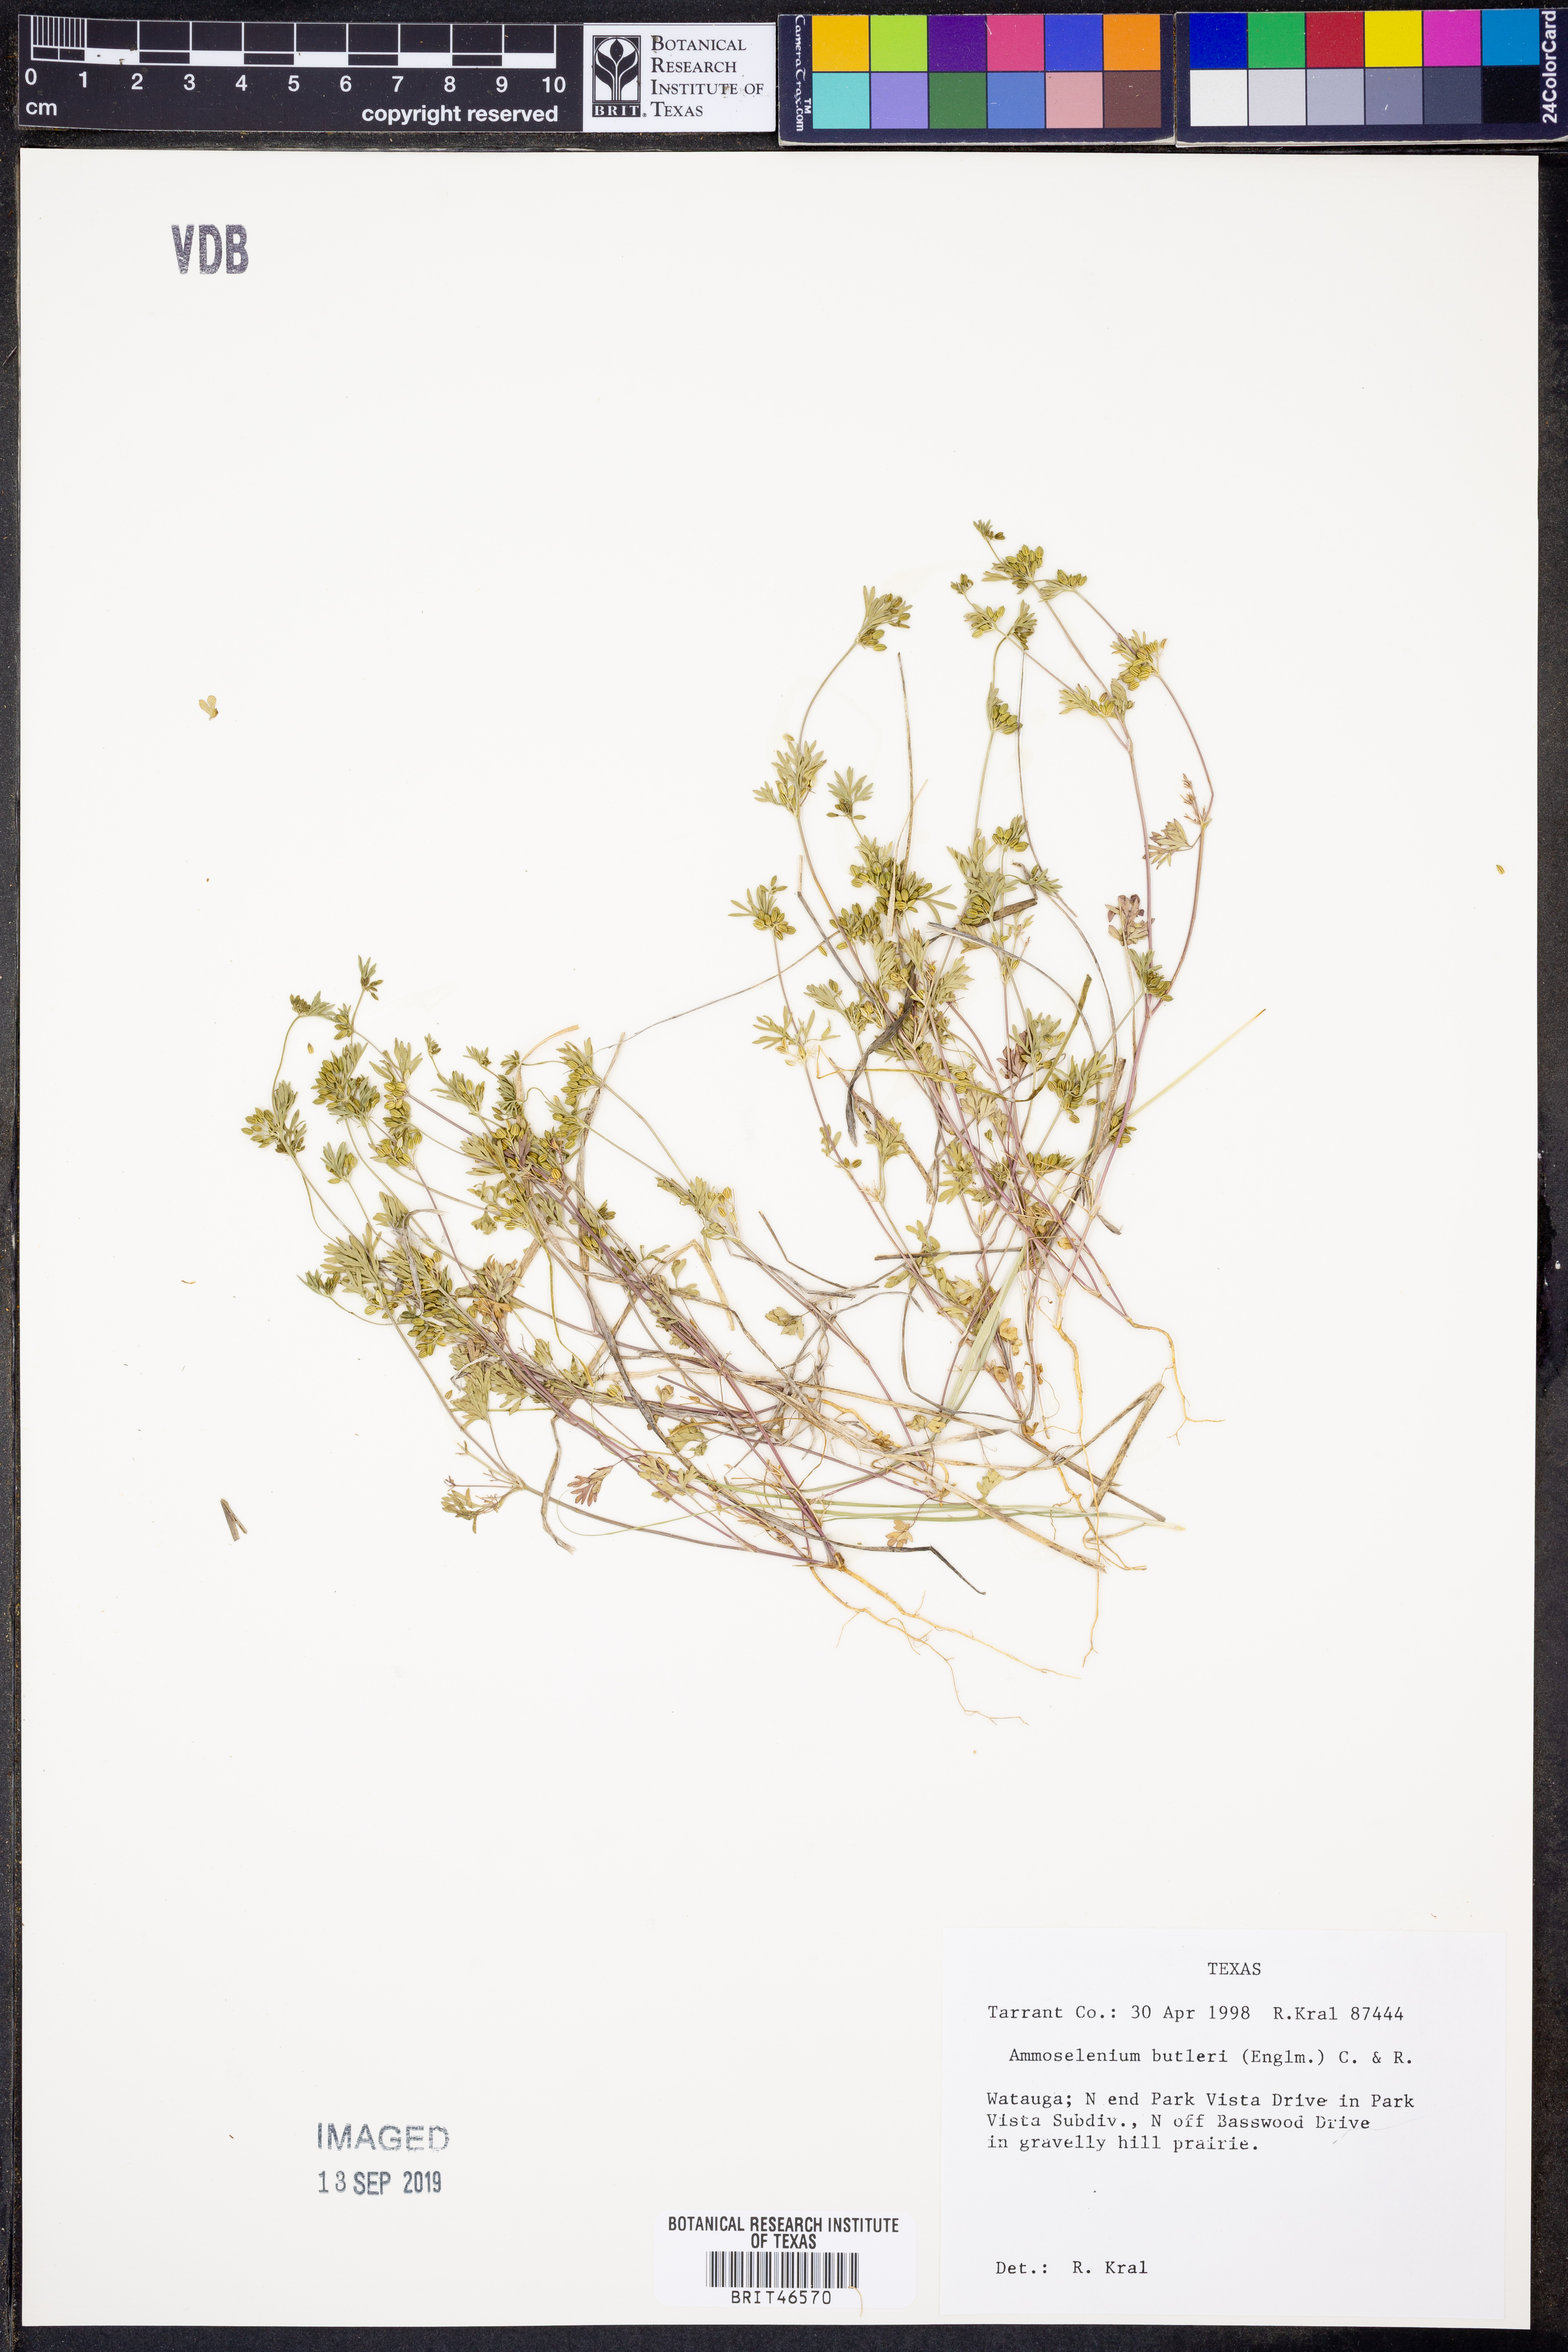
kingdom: Plantae
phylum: Tracheophyta
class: Magnoliopsida
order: Apiales
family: Apiaceae
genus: Ammoselinum
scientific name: Ammoselinum butleri
